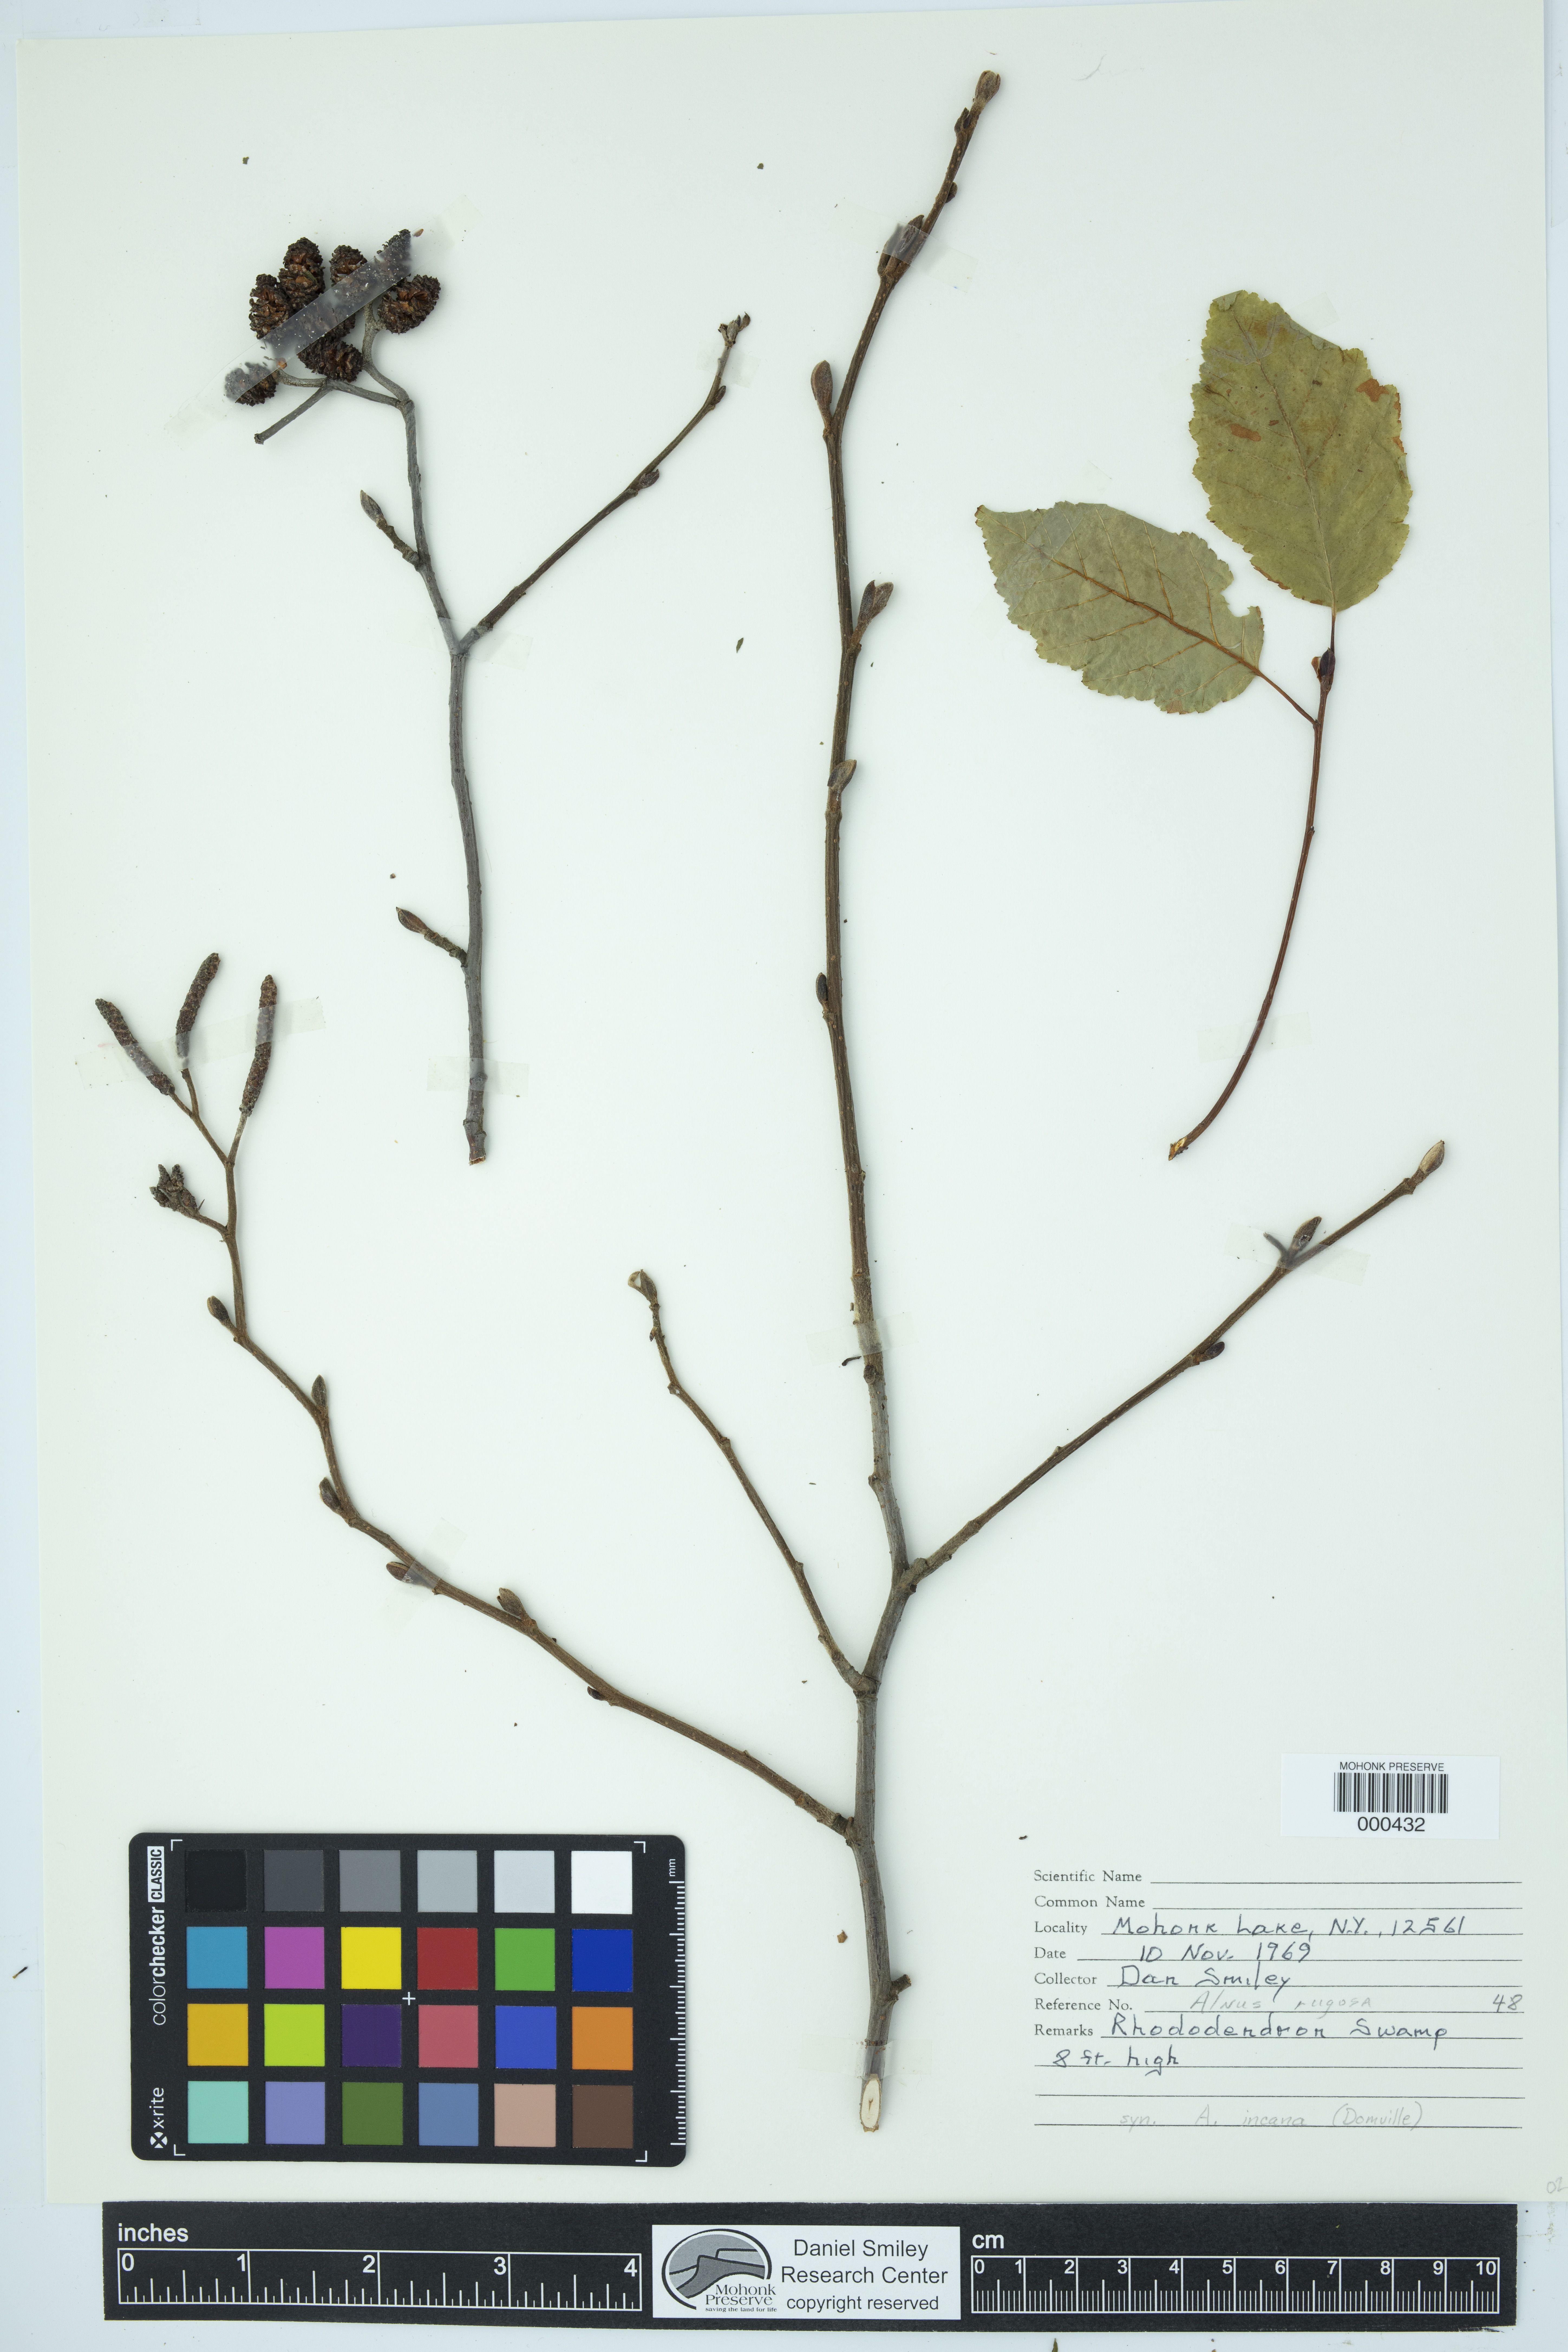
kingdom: Plantae
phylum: Tracheophyta
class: Magnoliopsida
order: Fagales
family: Betulaceae
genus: Alnus
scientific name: Alnus incana
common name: Grey alder
